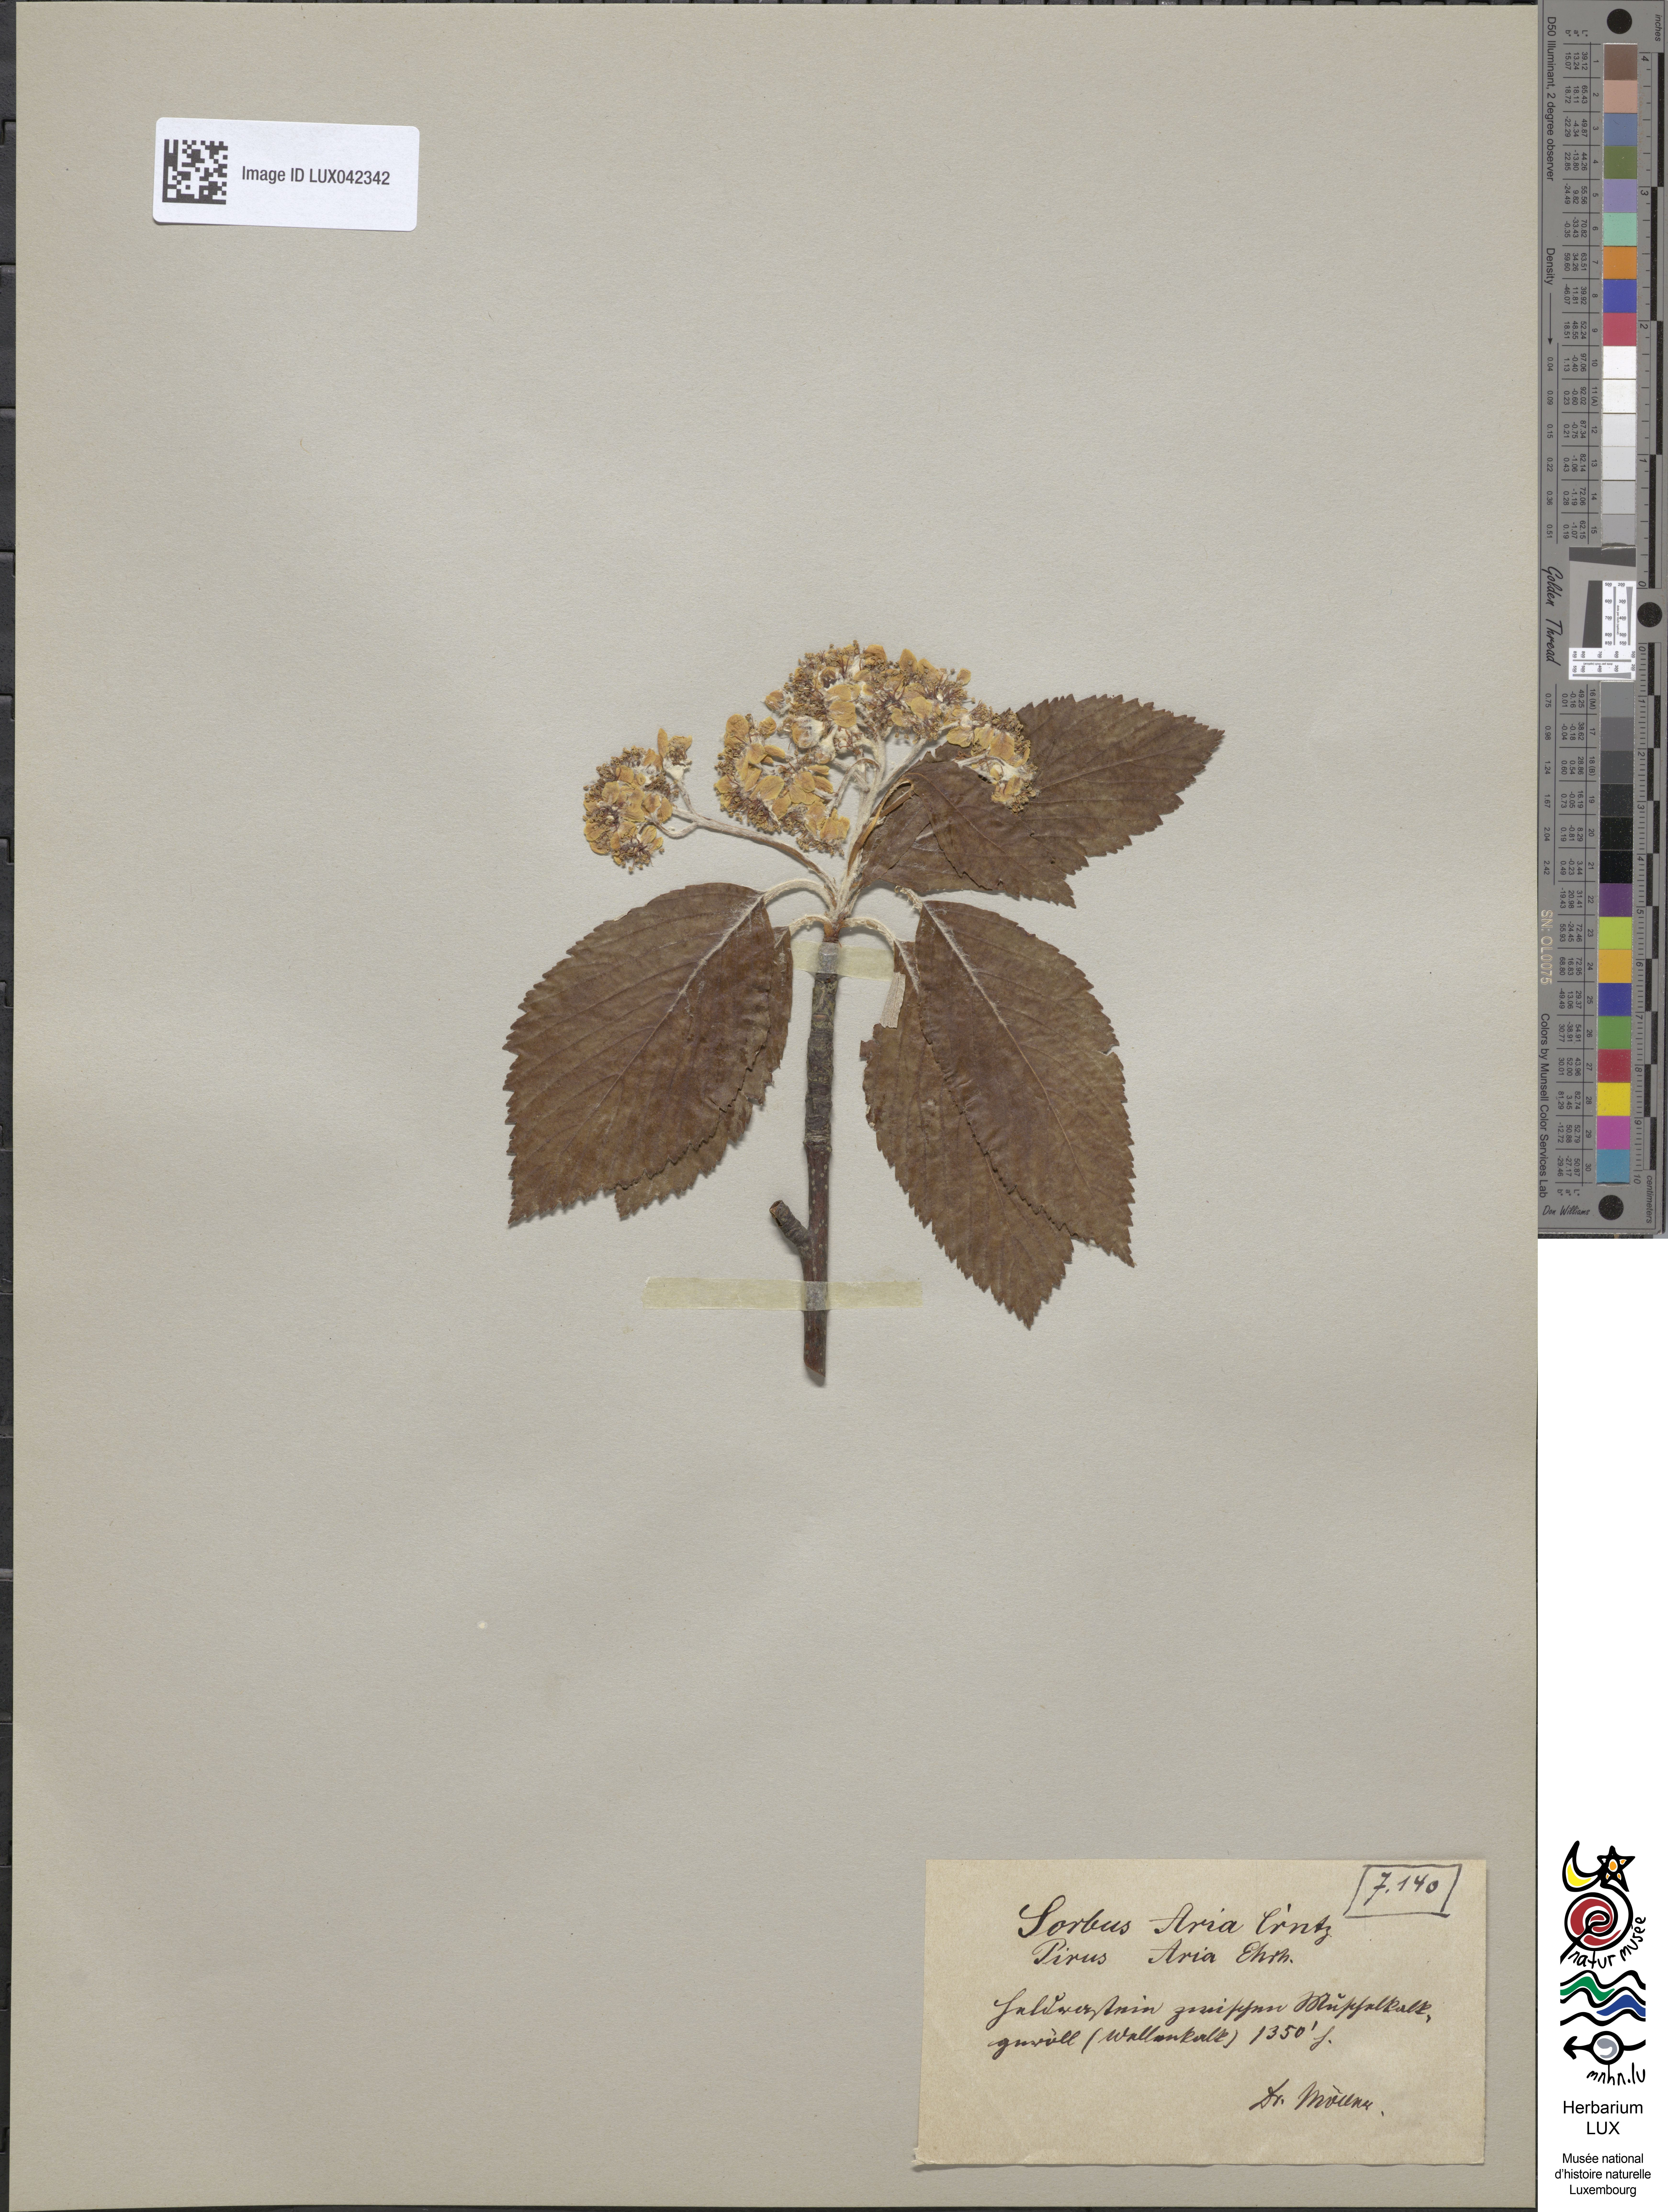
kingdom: Plantae
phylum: Tracheophyta
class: Magnoliopsida
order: Rosales
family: Rosaceae
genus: Aria
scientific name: Aria edulis
